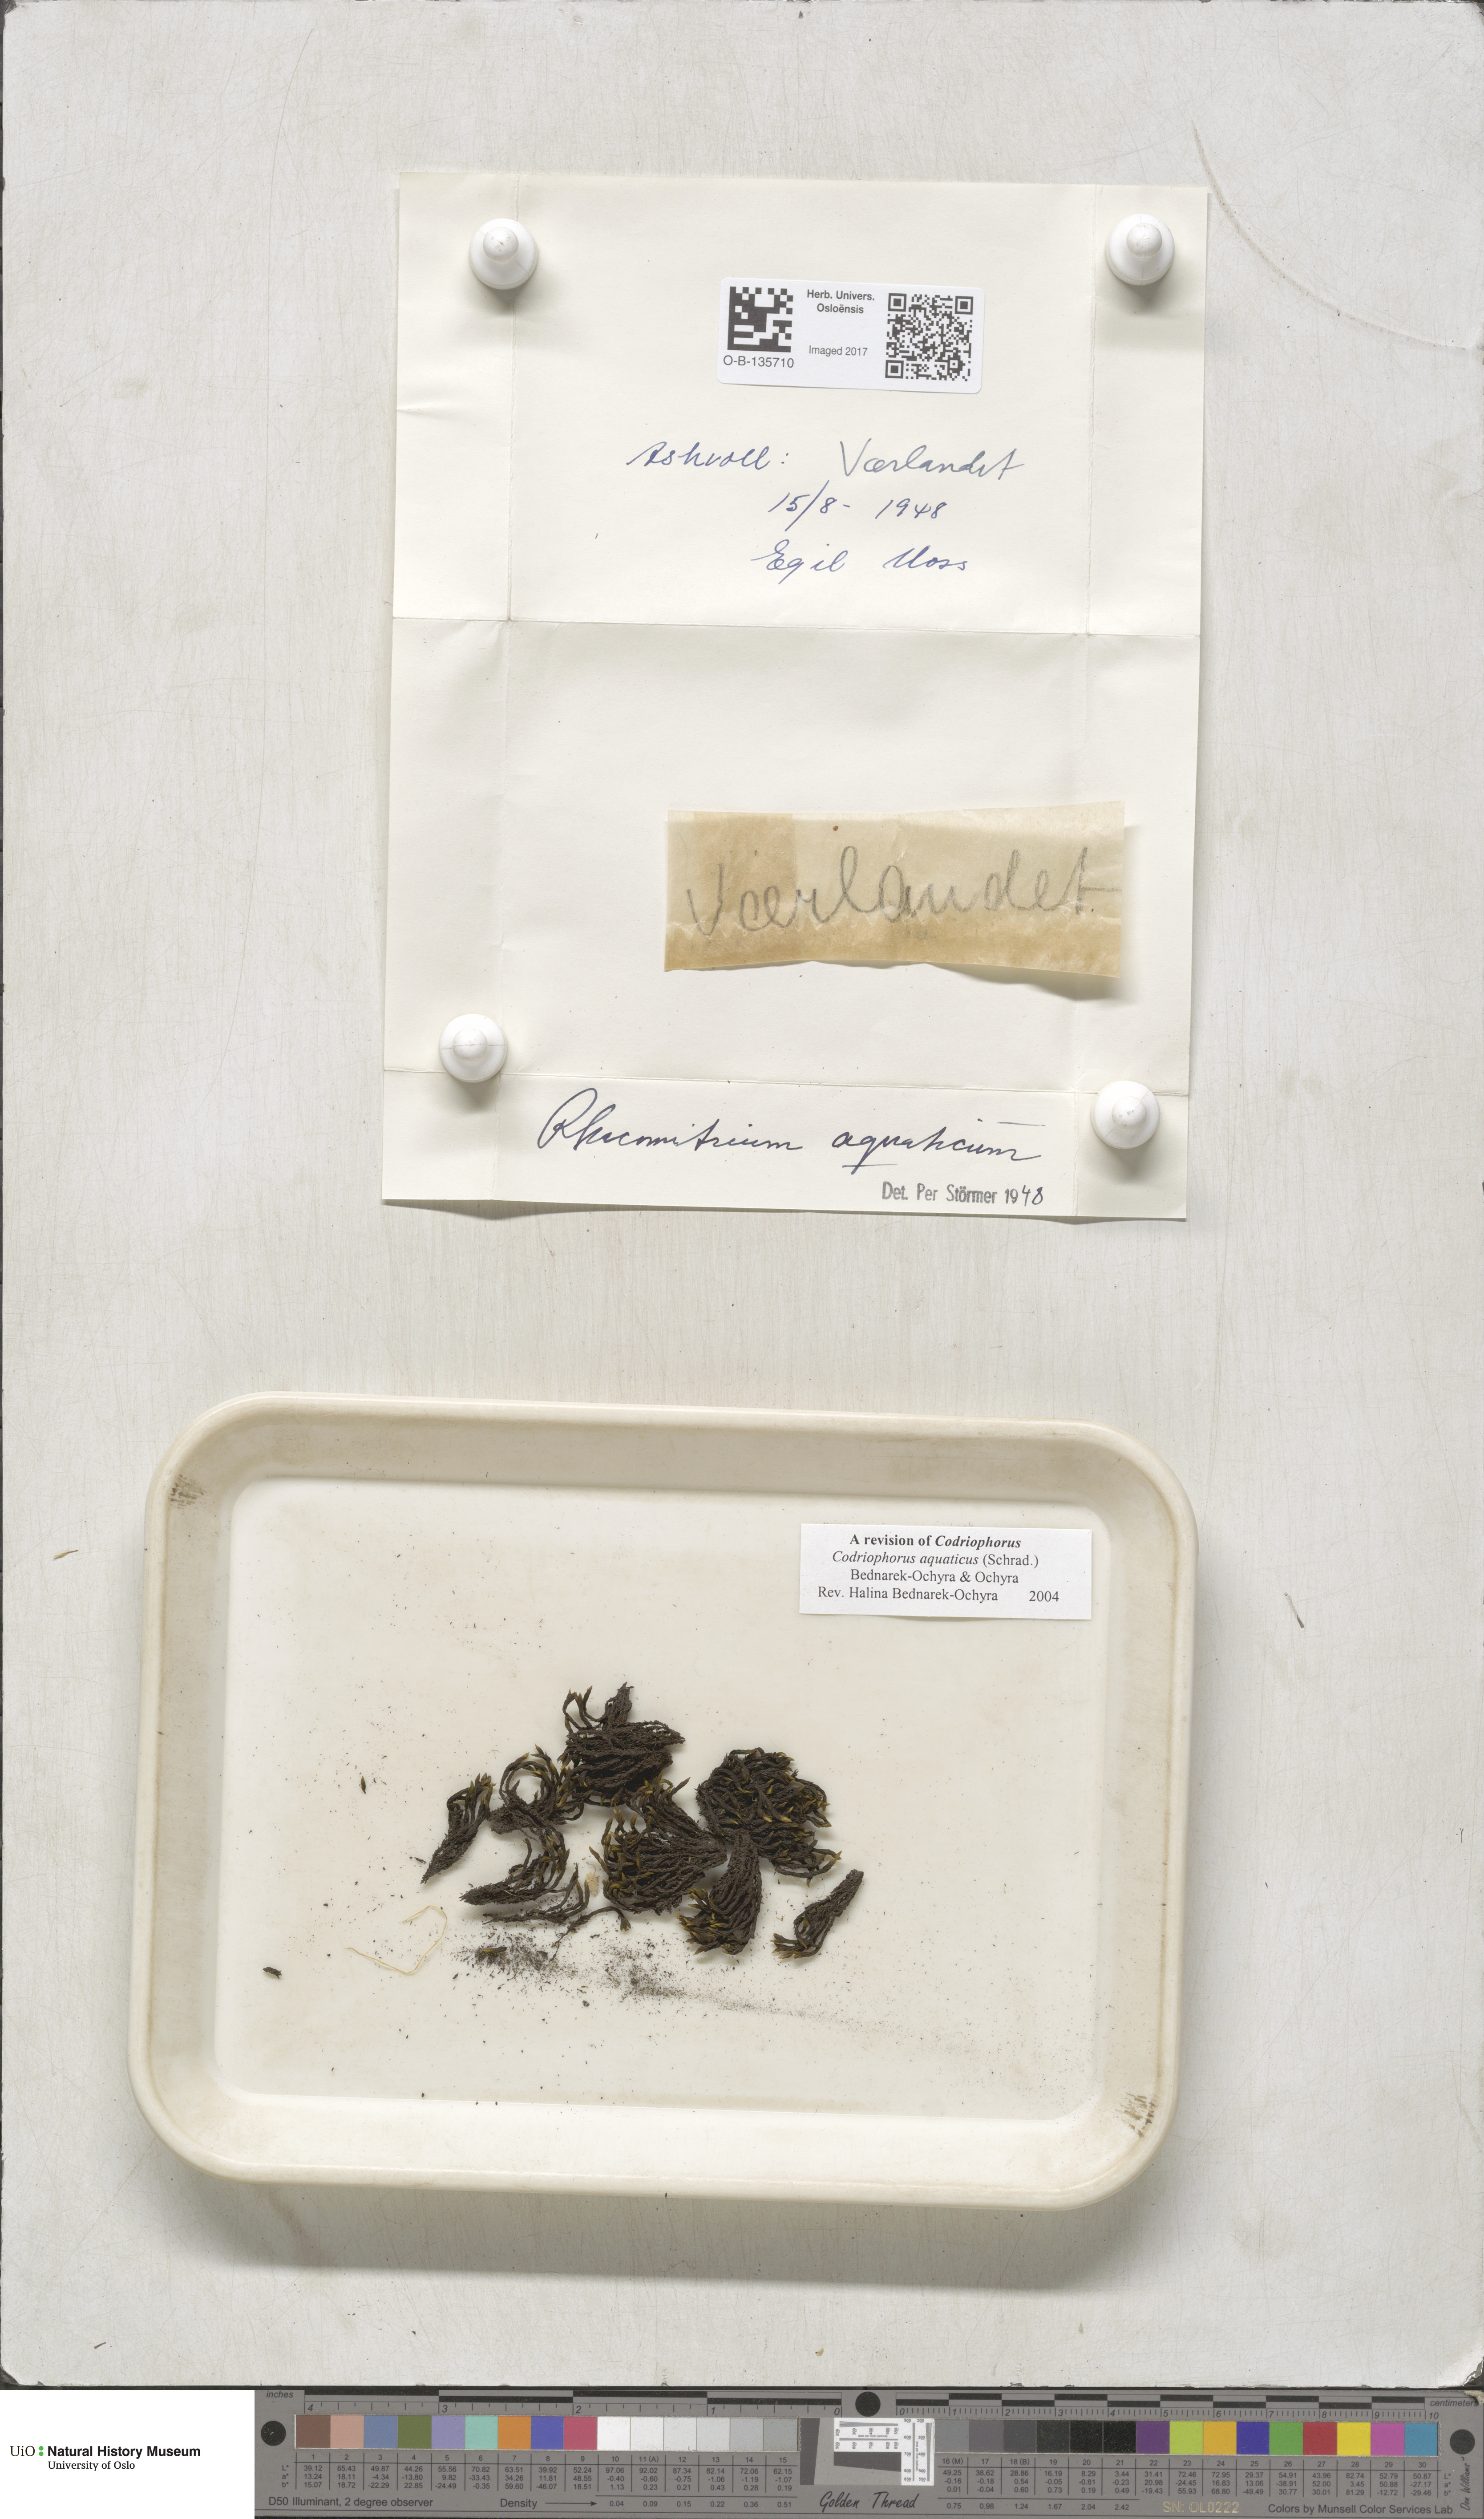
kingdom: Plantae
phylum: Bryophyta
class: Bryopsida
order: Grimmiales
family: Grimmiaceae
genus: Codriophorus
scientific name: Codriophorus aquaticus
